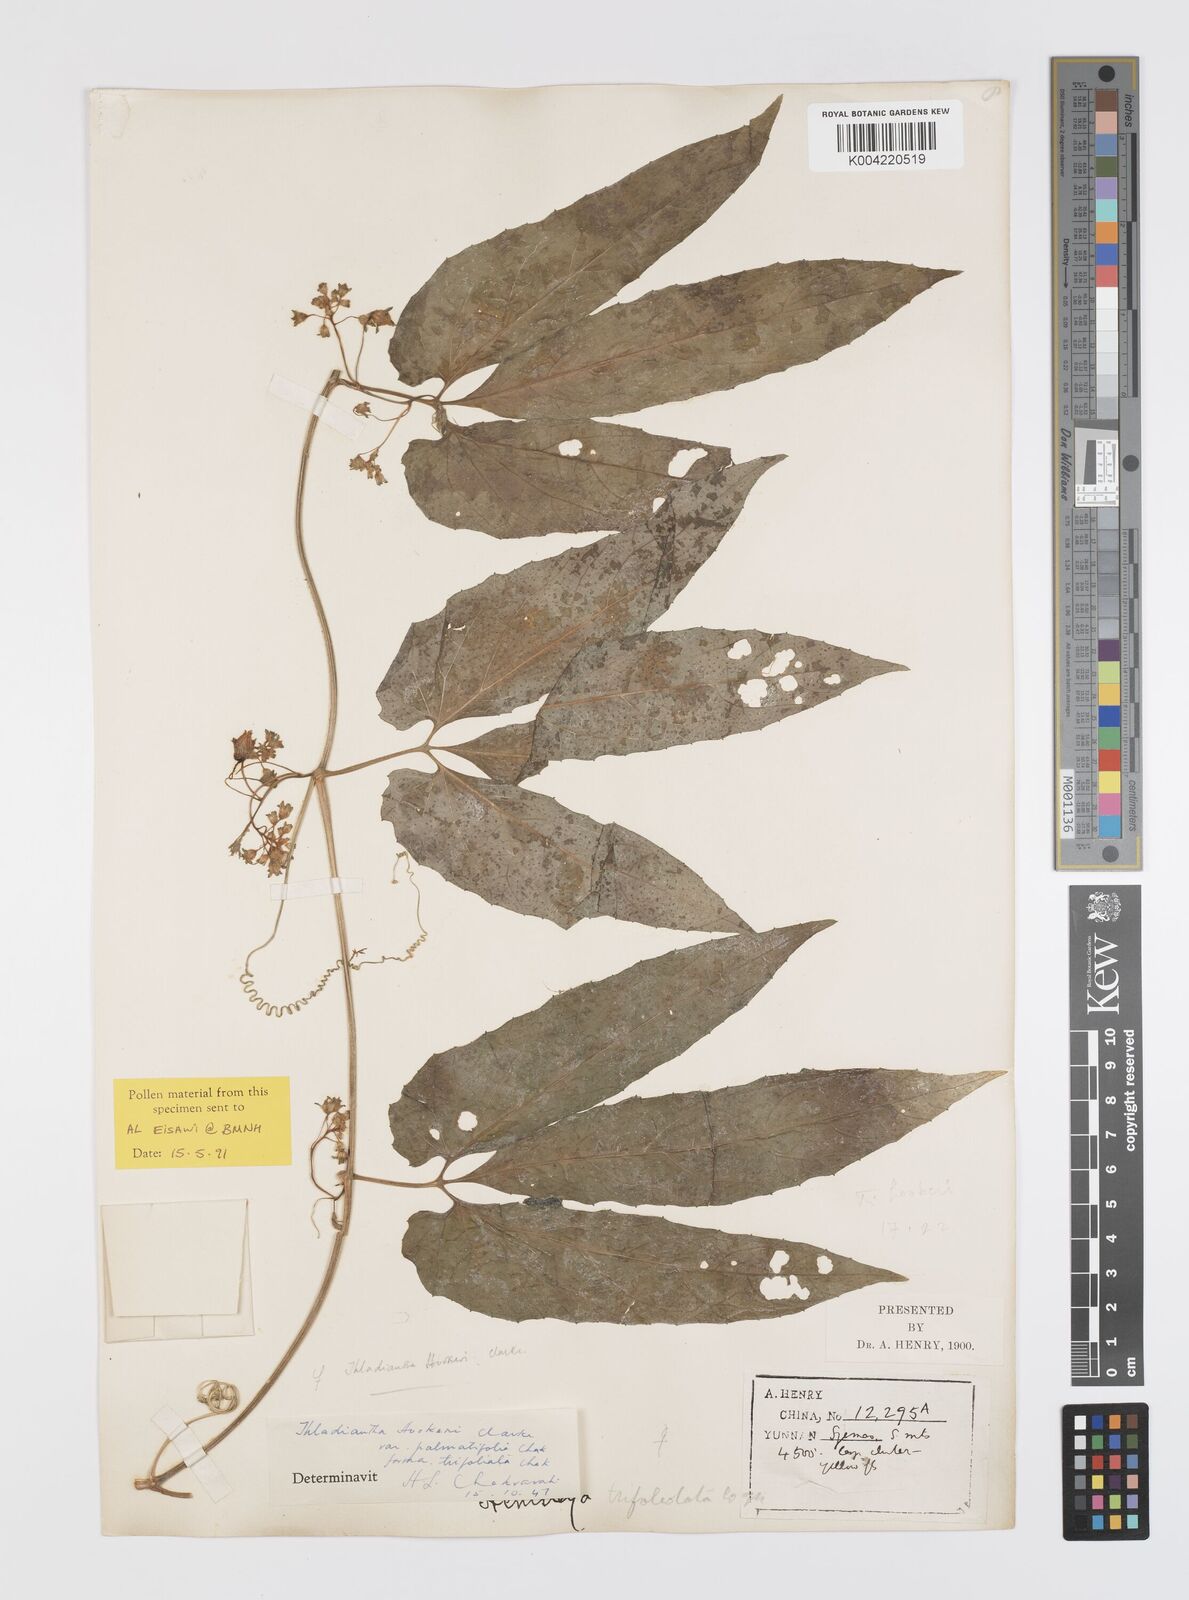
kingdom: Plantae
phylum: Tracheophyta
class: Magnoliopsida
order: Cucurbitales
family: Cucurbitaceae
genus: Thladiantha
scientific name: Thladiantha hookeri
